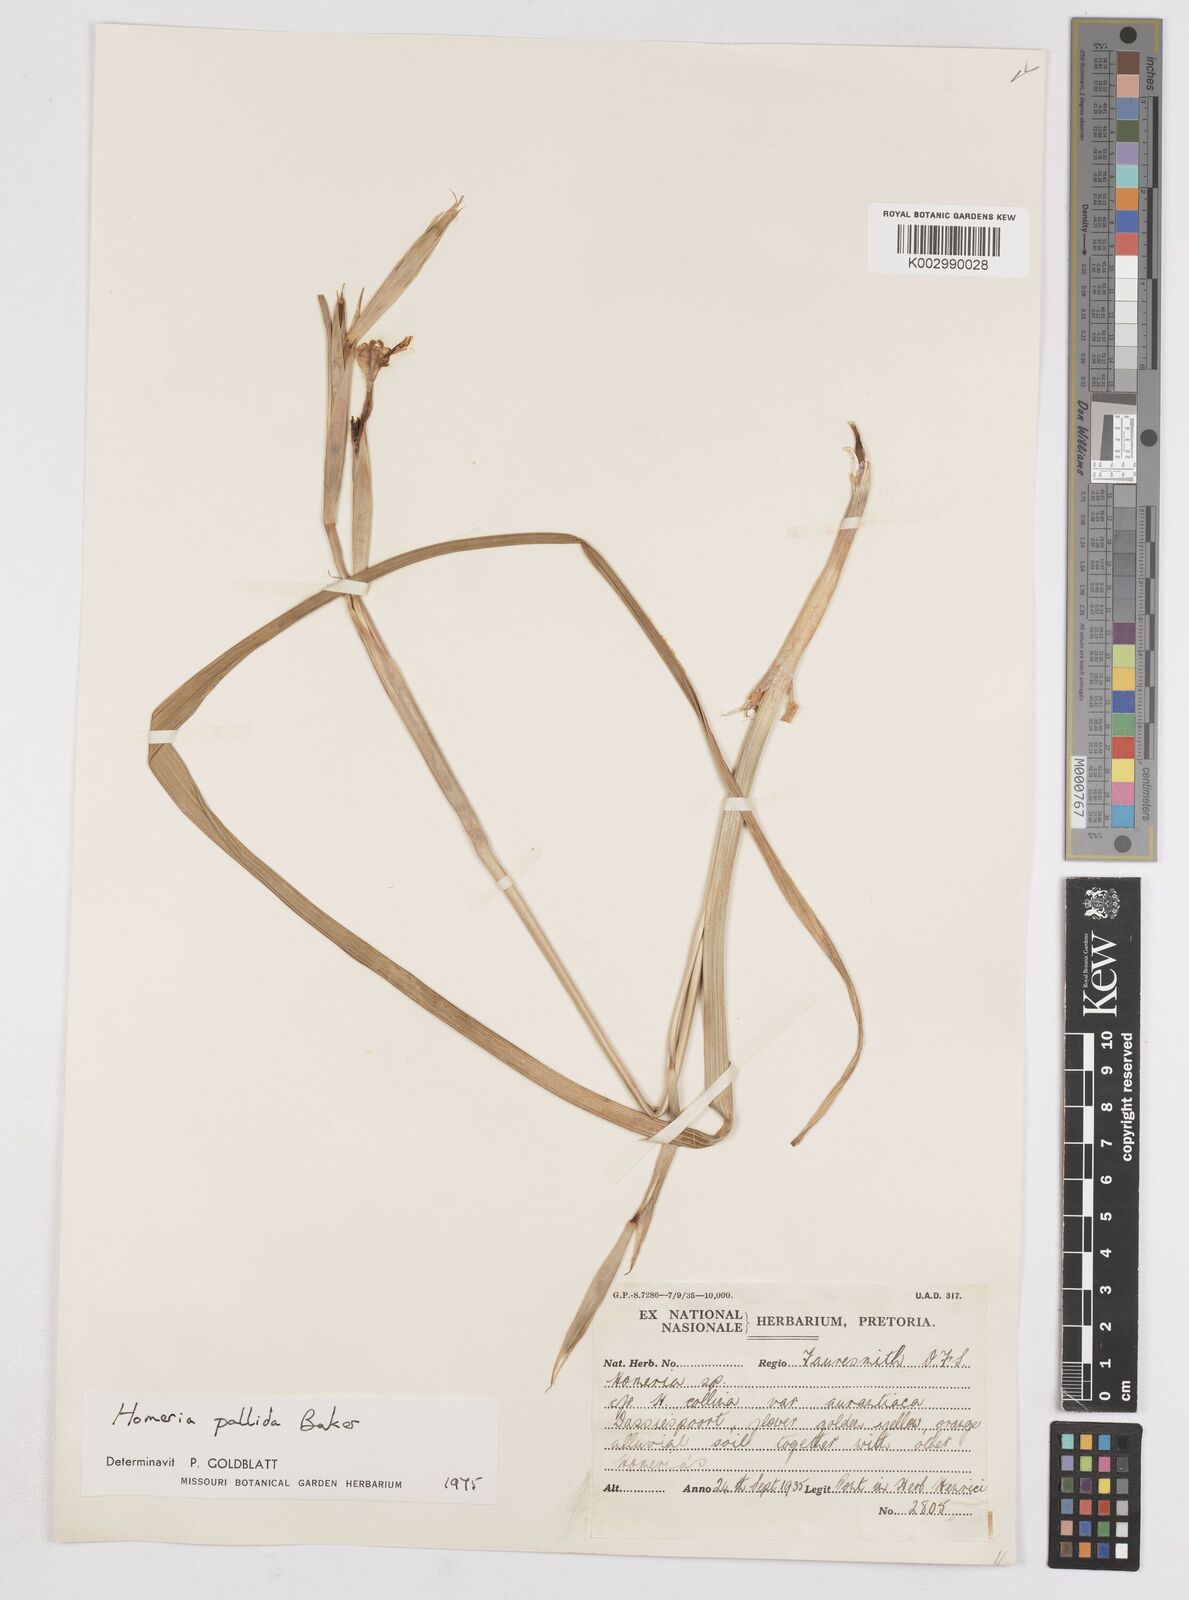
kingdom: Plantae
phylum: Tracheophyta
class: Liliopsida
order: Asparagales
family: Iridaceae
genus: Moraea
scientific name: Moraea pallida
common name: Yellow tulp
